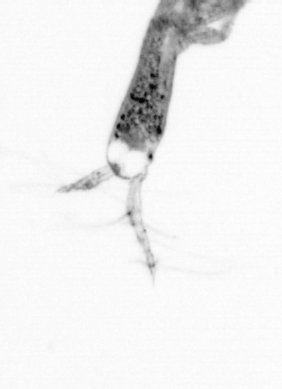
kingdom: Animalia
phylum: Arthropoda
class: Copepoda
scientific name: Copepoda
